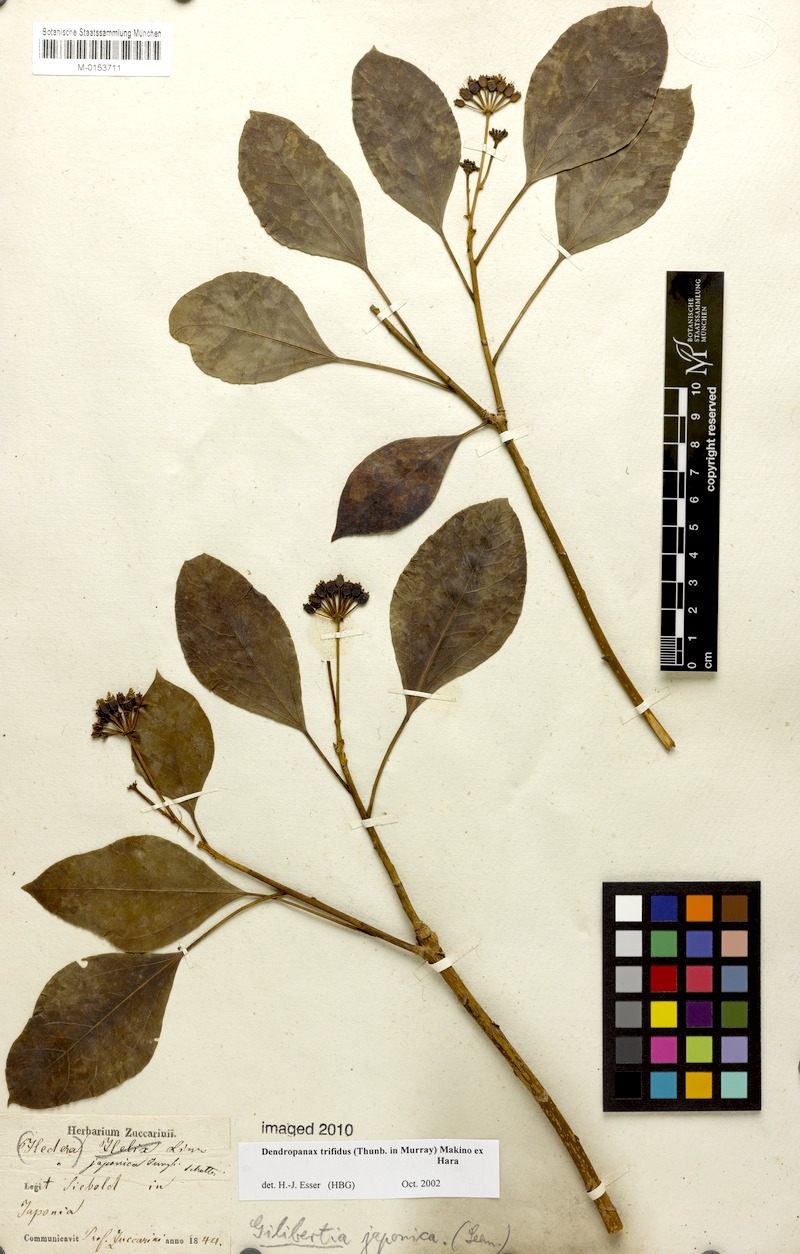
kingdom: Plantae
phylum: Tracheophyta
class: Magnoliopsida
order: Apiales
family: Araliaceae
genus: Dendropanax
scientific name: Dendropanax trifidus
